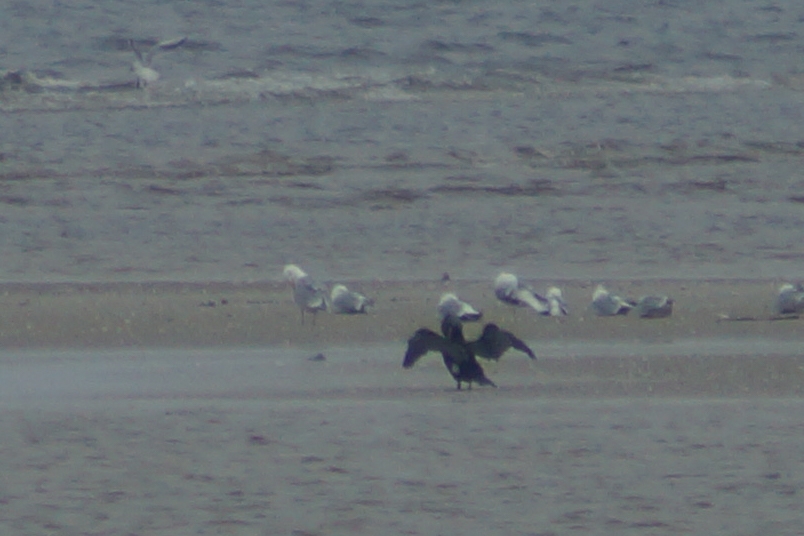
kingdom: Animalia
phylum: Chordata
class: Aves
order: Suliformes
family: Phalacrocoracidae
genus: Phalacrocorax
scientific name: Phalacrocorax carbo
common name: Skarv
